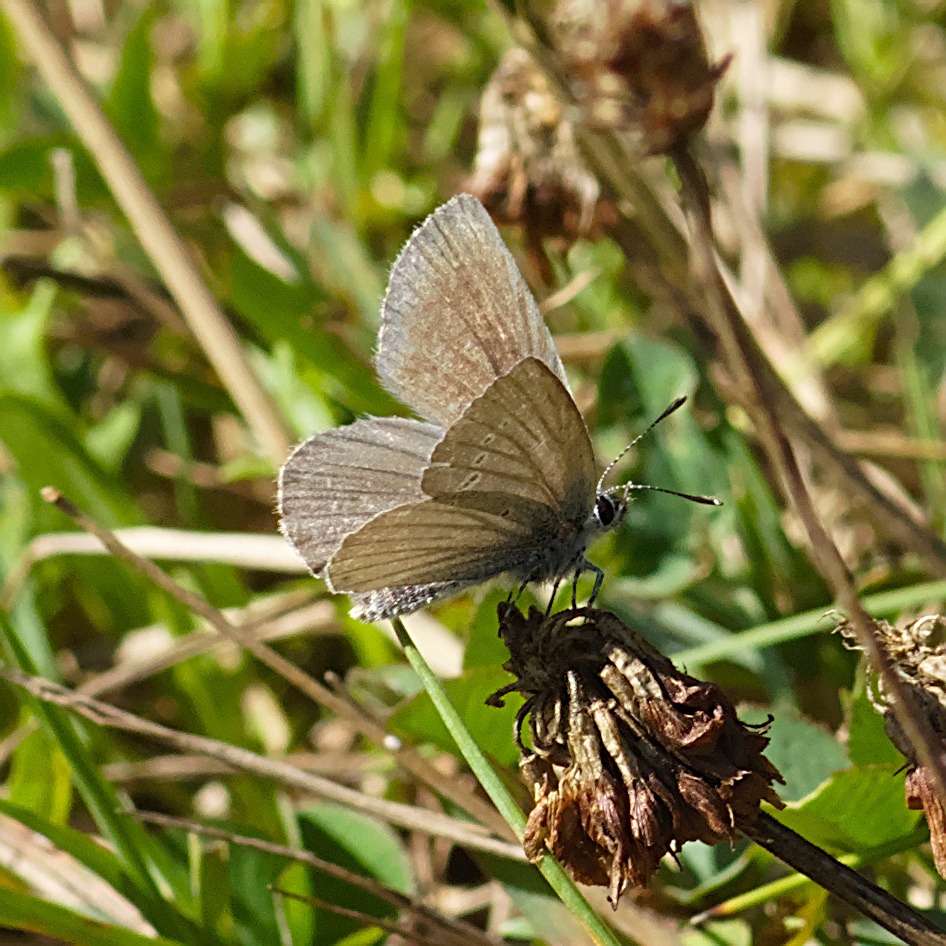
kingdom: Animalia
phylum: Arthropoda
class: Insecta
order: Lepidoptera
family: Lycaenidae
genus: Cupido
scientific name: Cupido minimus
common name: Dværgblåfugl
